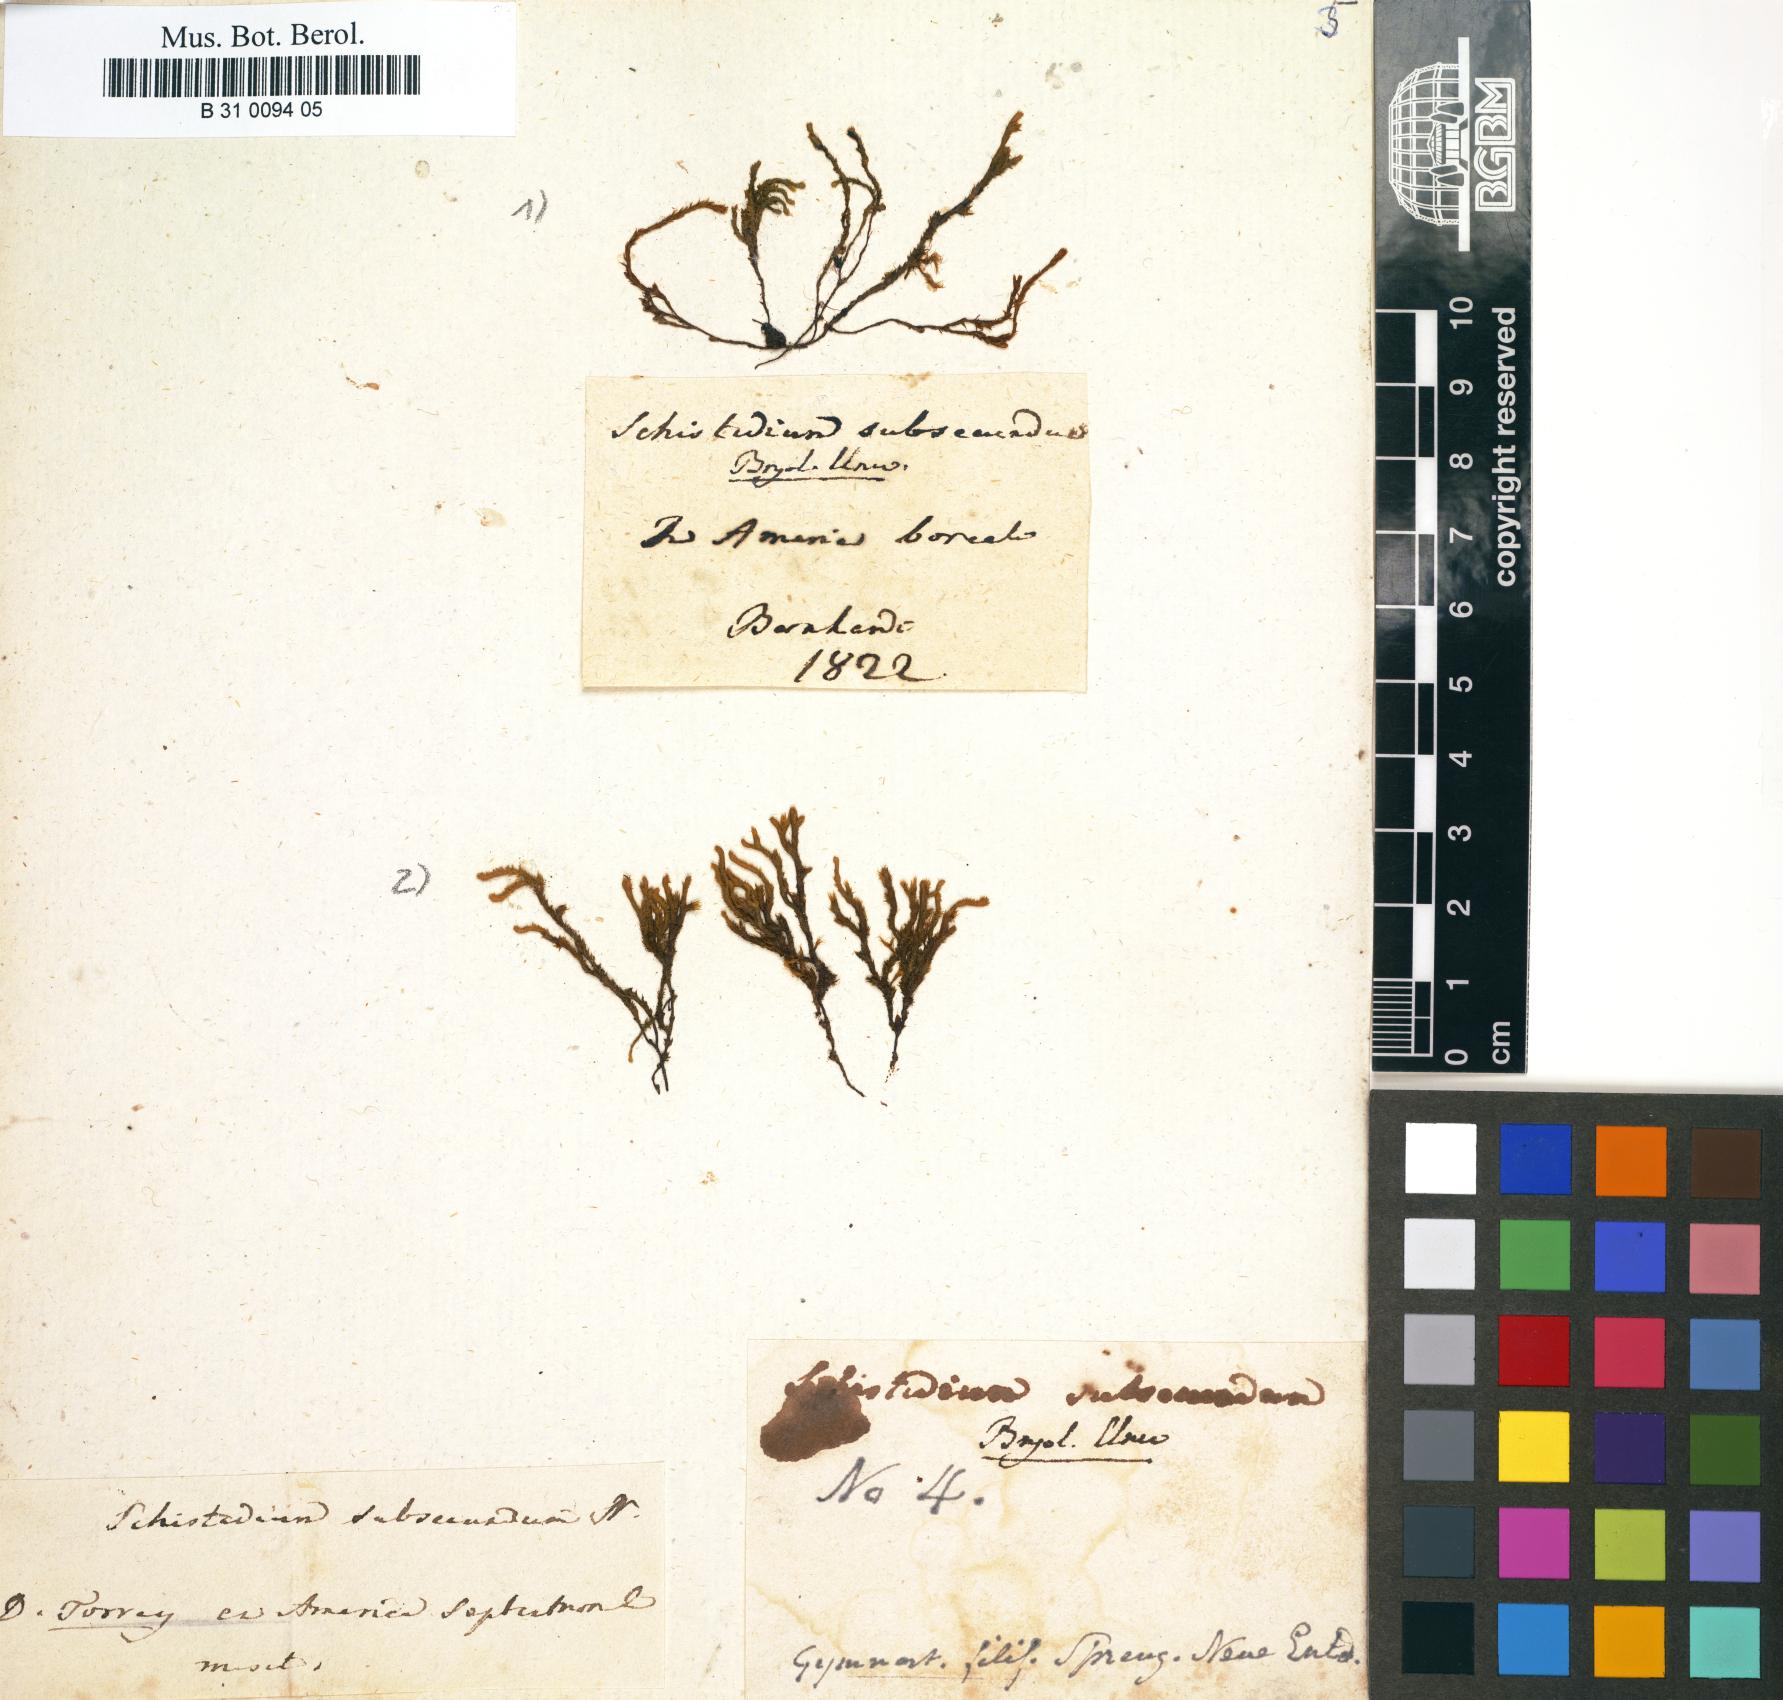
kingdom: Plantae
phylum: Bryophyta
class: Bryopsida
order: Hedwigiales
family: Hedwigiaceae
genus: Hedwigidium
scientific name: Hedwigidium imberbe
